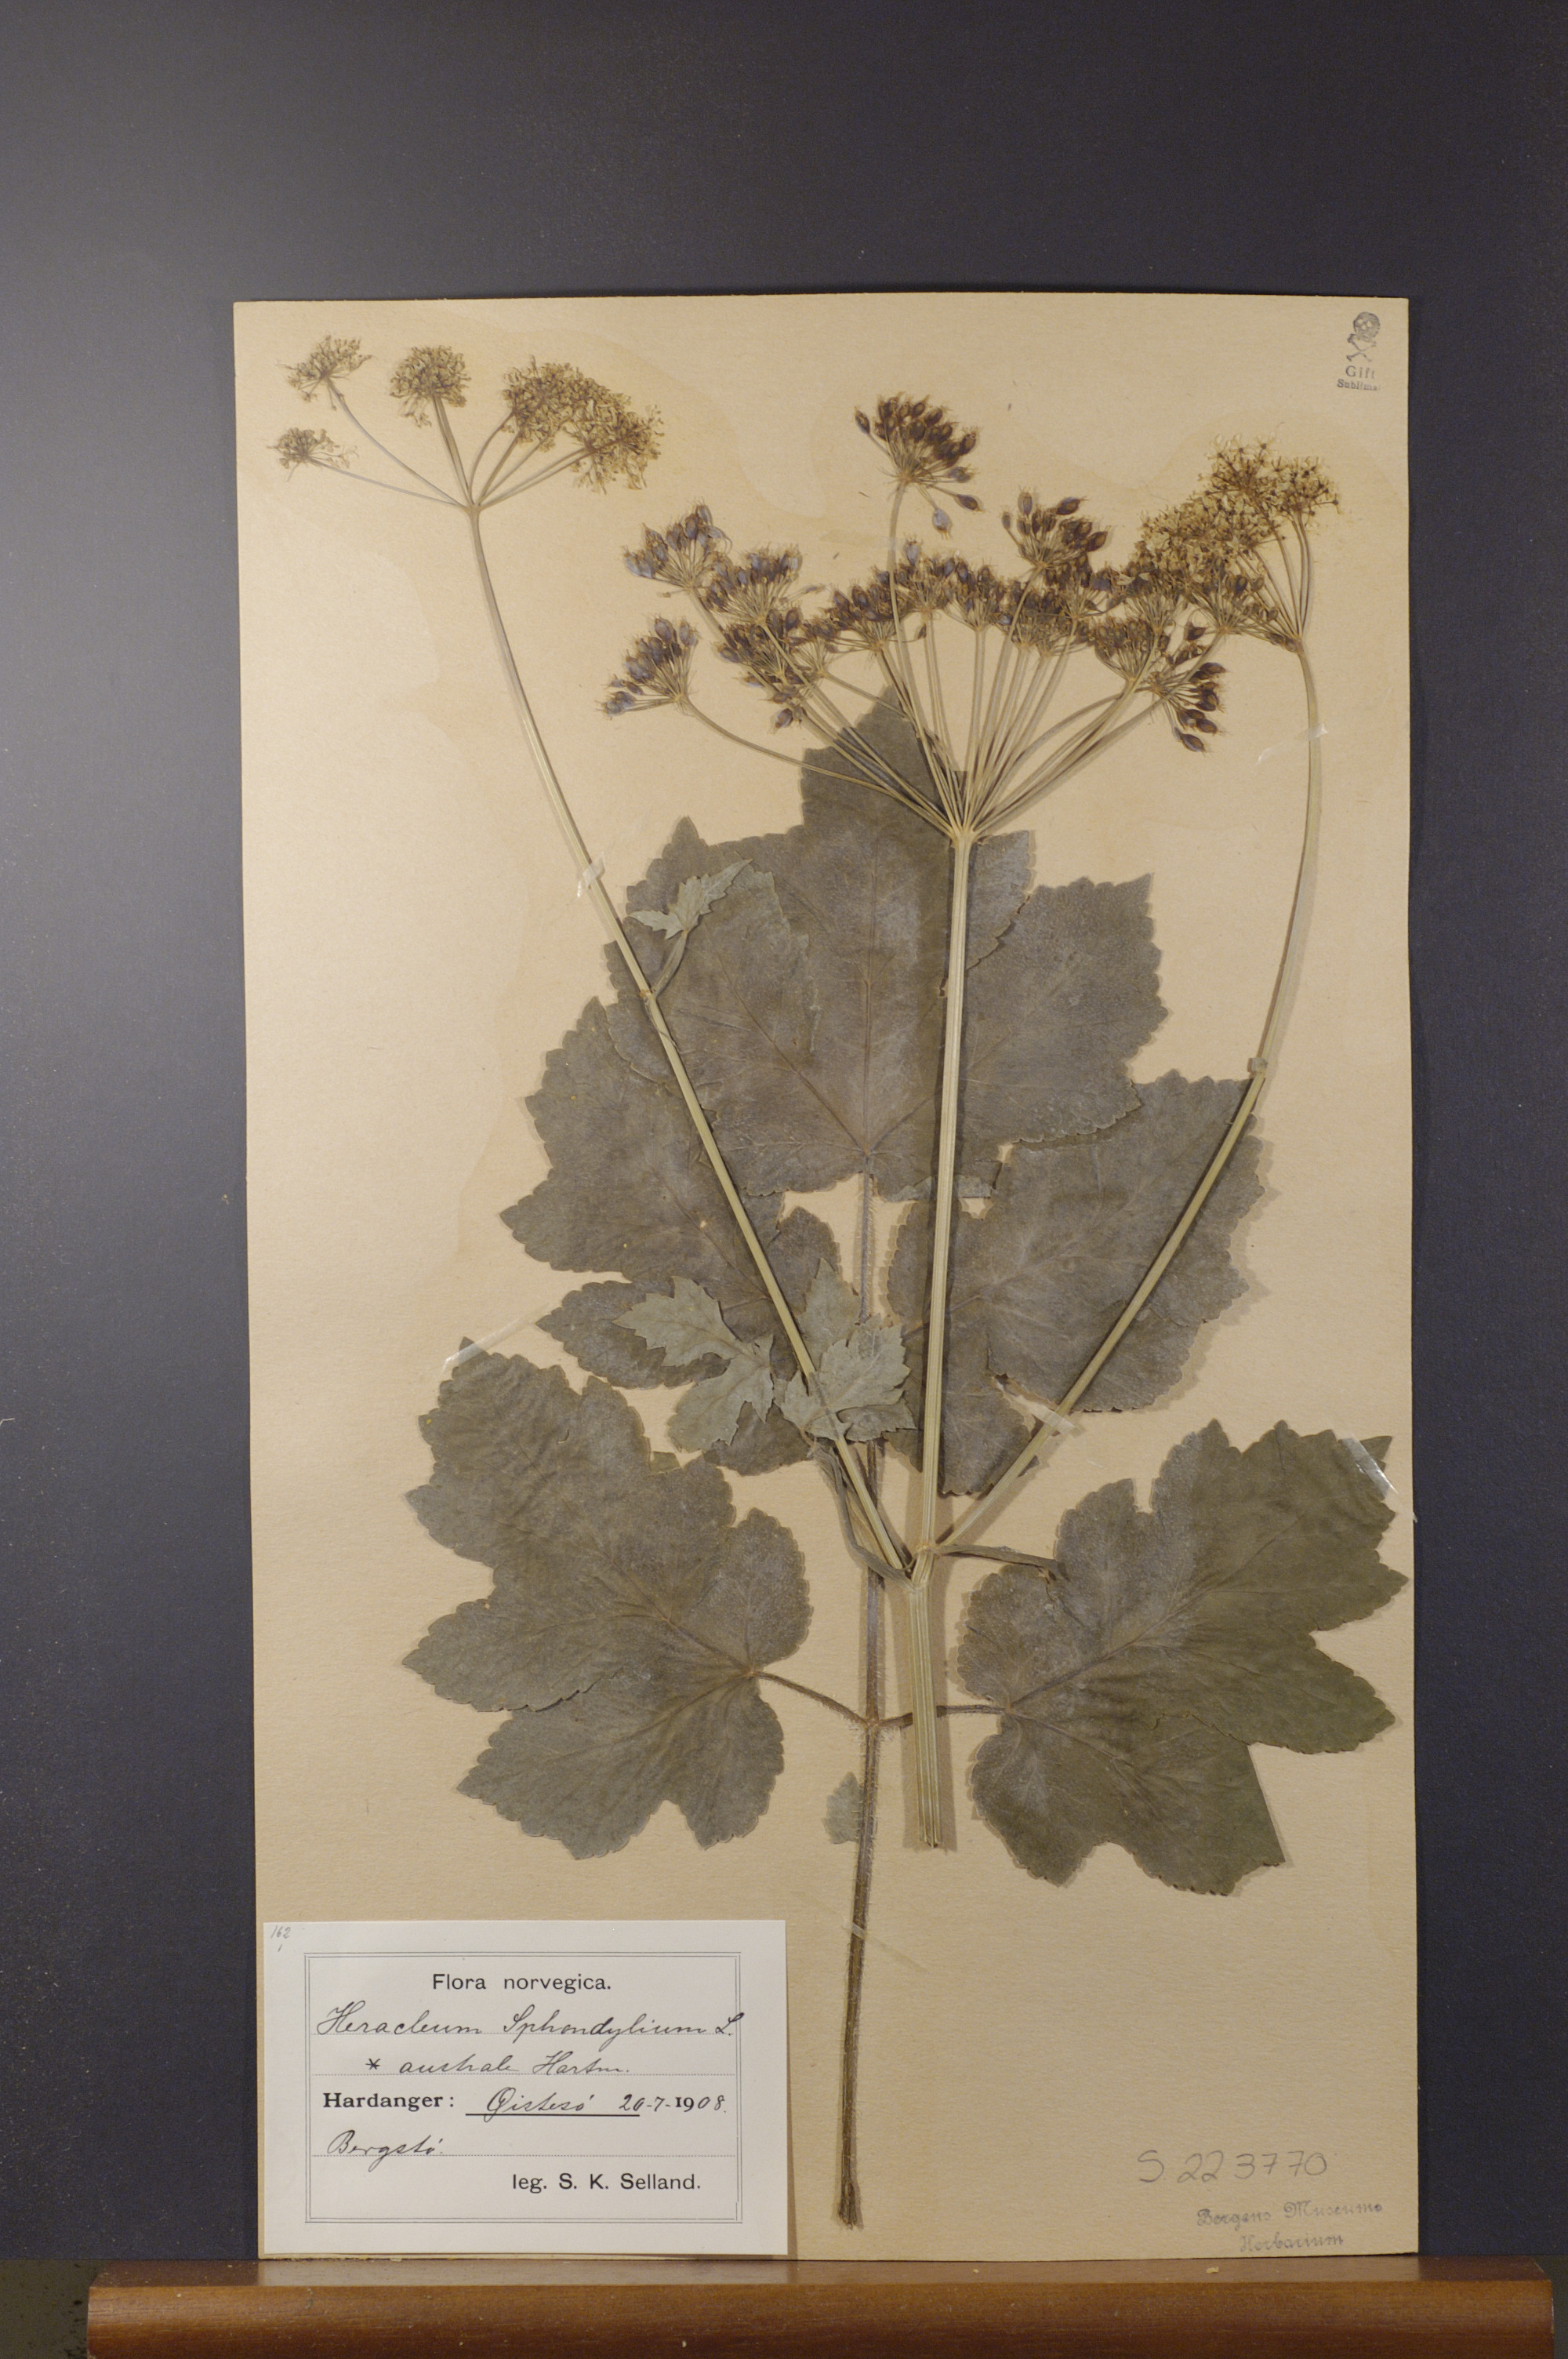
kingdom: Plantae
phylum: Tracheophyta
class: Magnoliopsida
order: Apiales
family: Apiaceae
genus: Heracleum
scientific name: Heracleum sphondylium
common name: Hogweed
